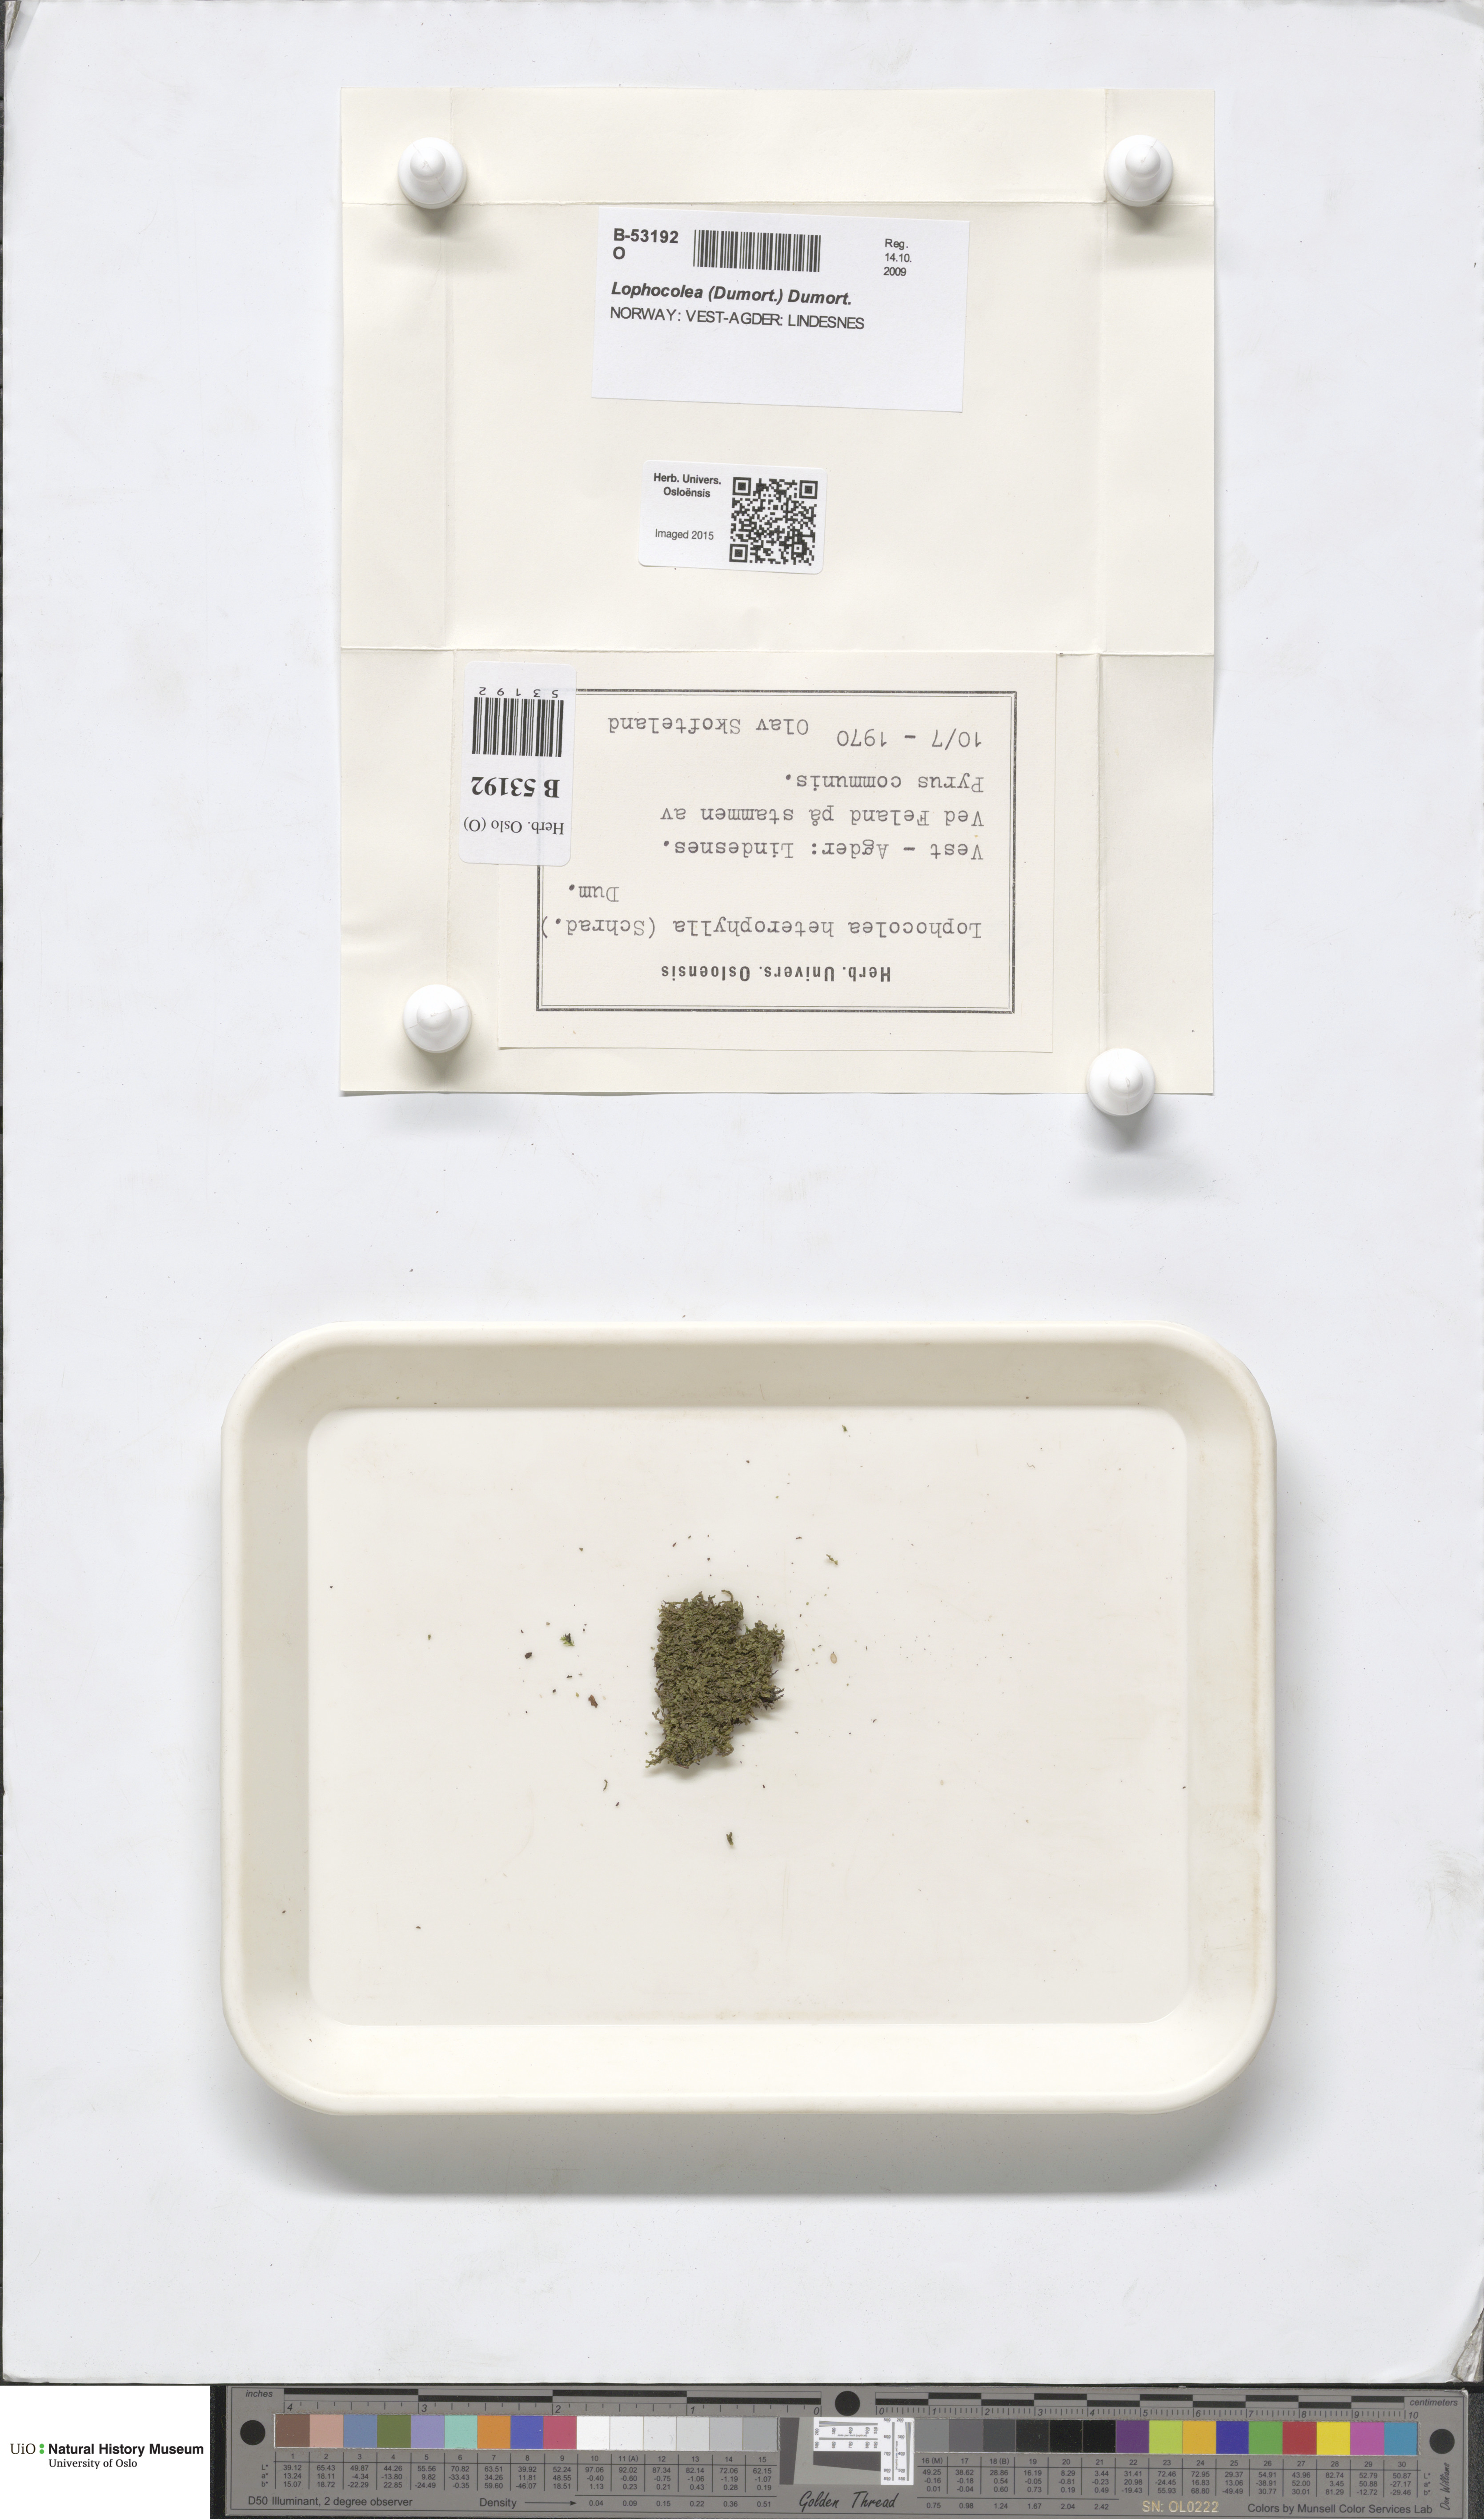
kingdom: Plantae
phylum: Marchantiophyta
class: Jungermanniopsida
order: Jungermanniales
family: Lophocoleaceae
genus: Lophocolea
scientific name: Lophocolea heterophylla
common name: Variable-leaved crestwort
